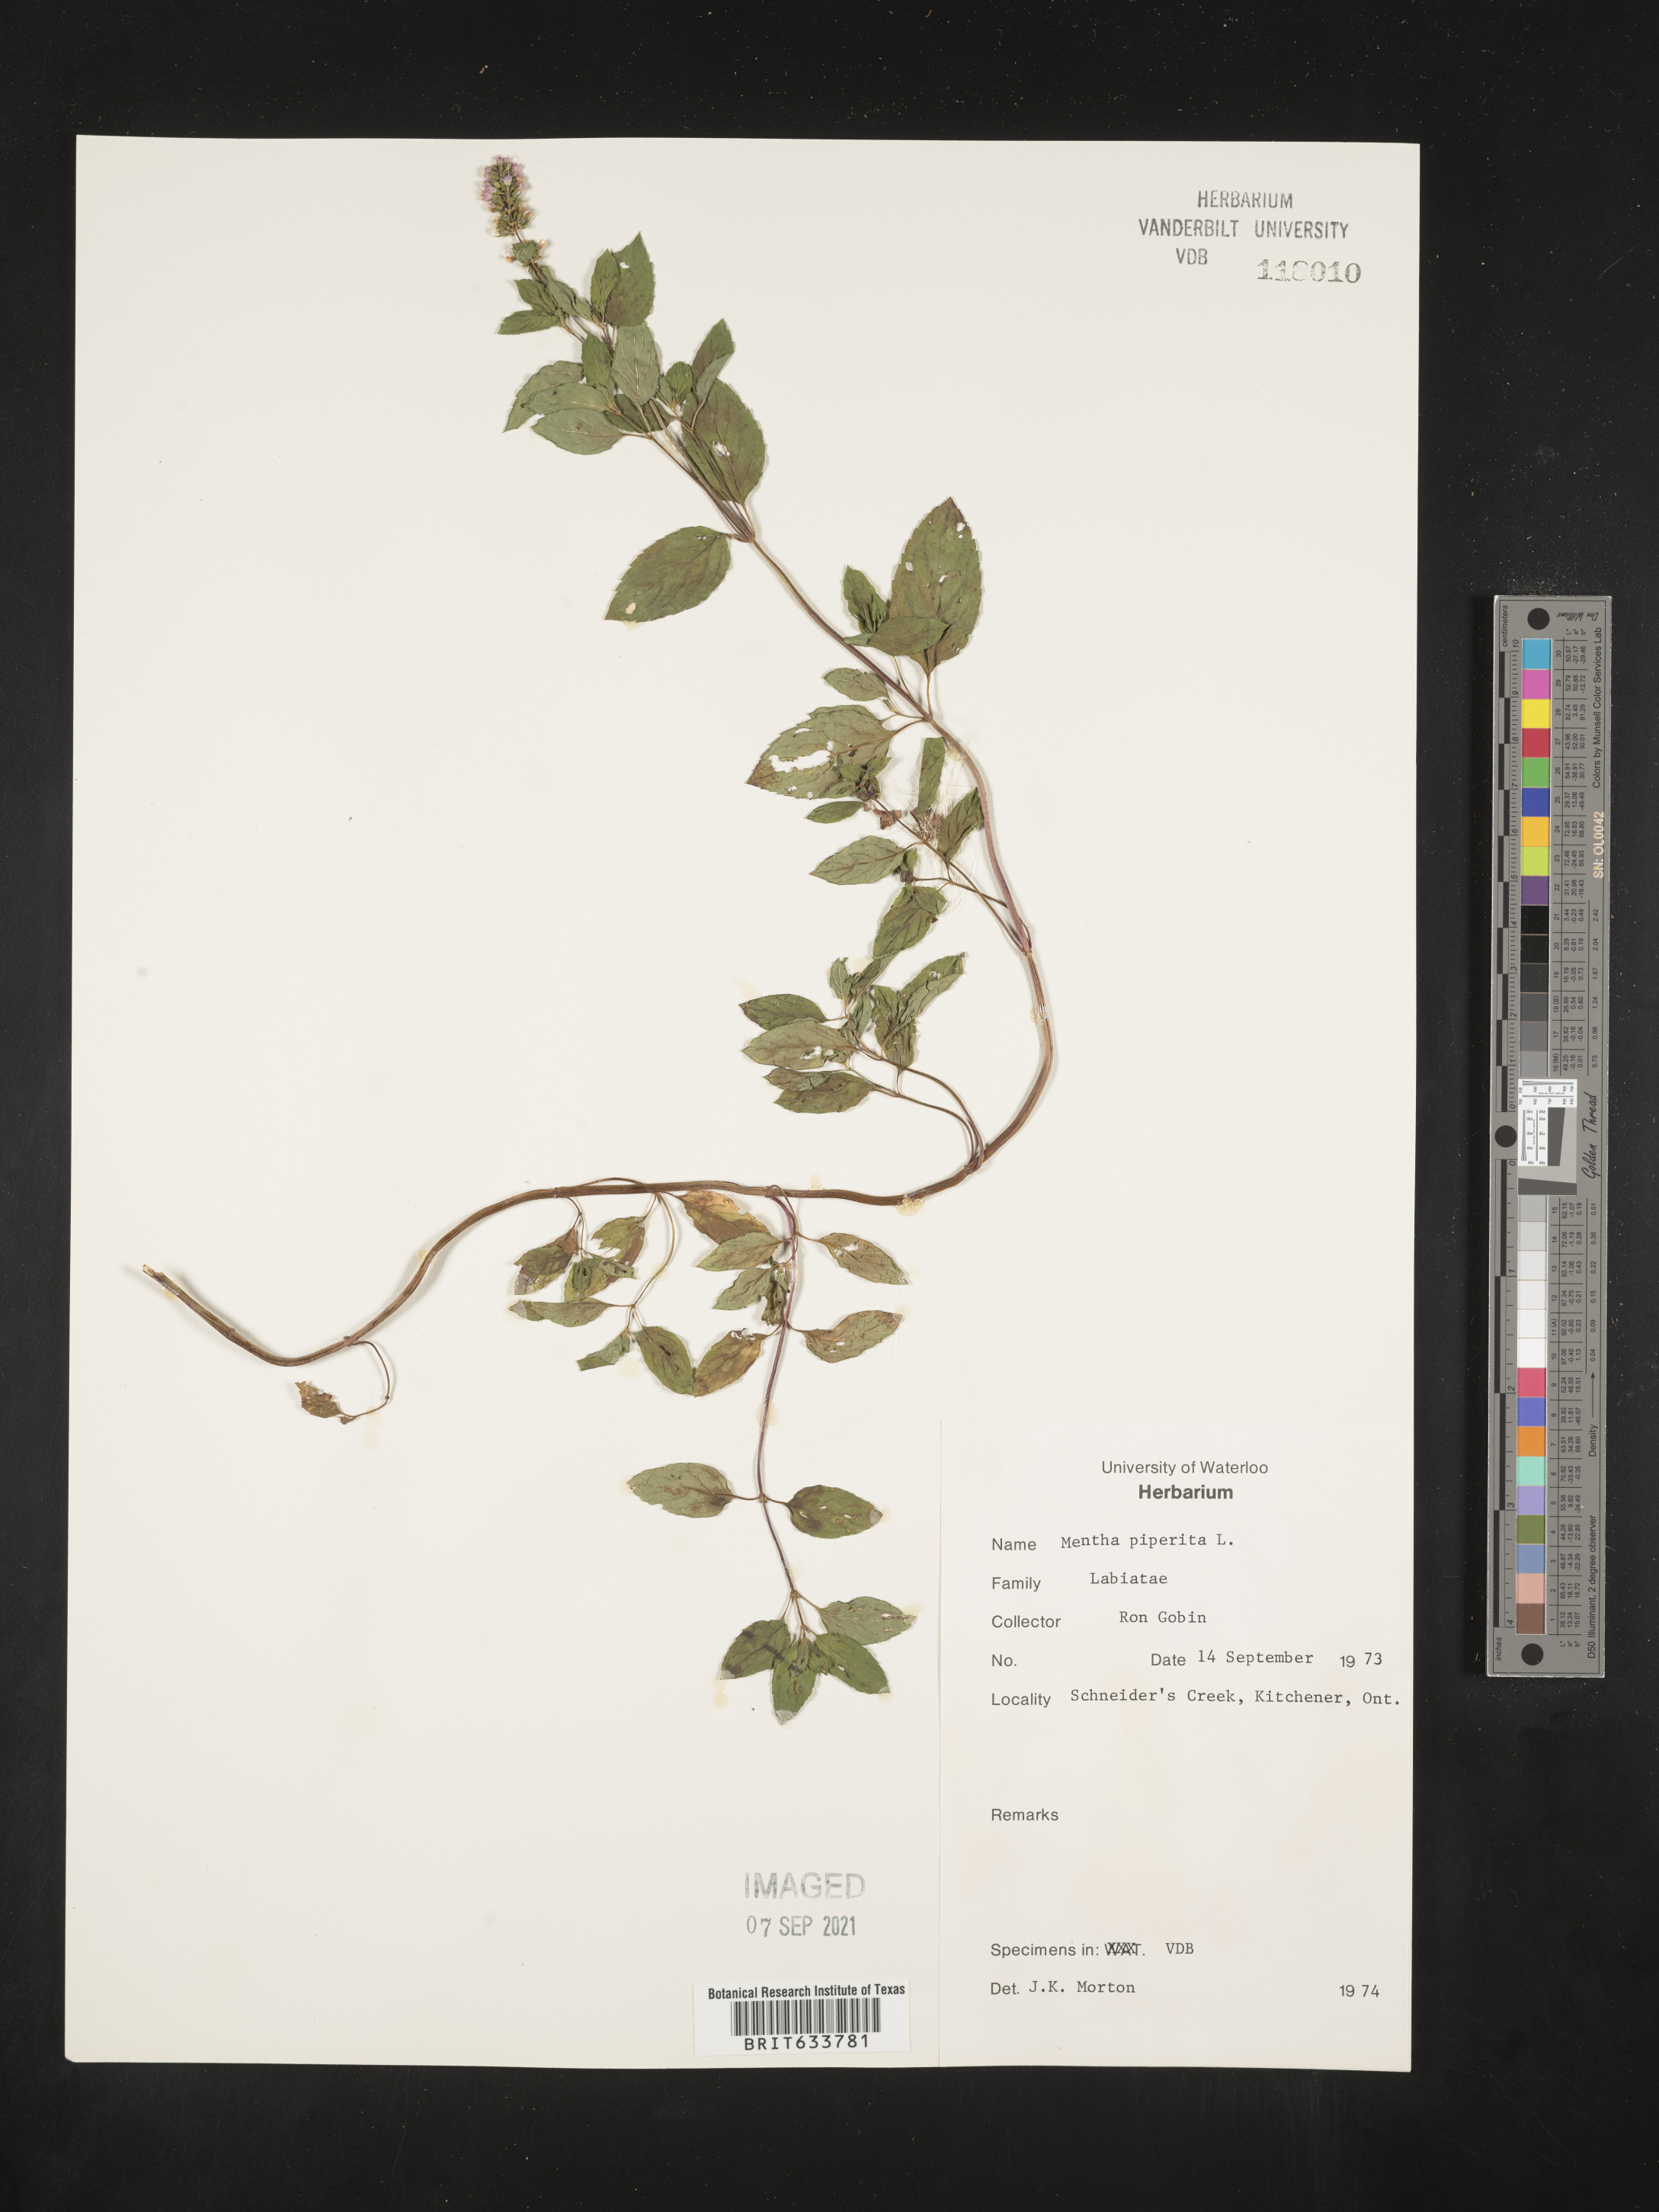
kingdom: Plantae
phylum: Tracheophyta
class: Magnoliopsida
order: Lamiales
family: Lamiaceae
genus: Mentha
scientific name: Mentha
